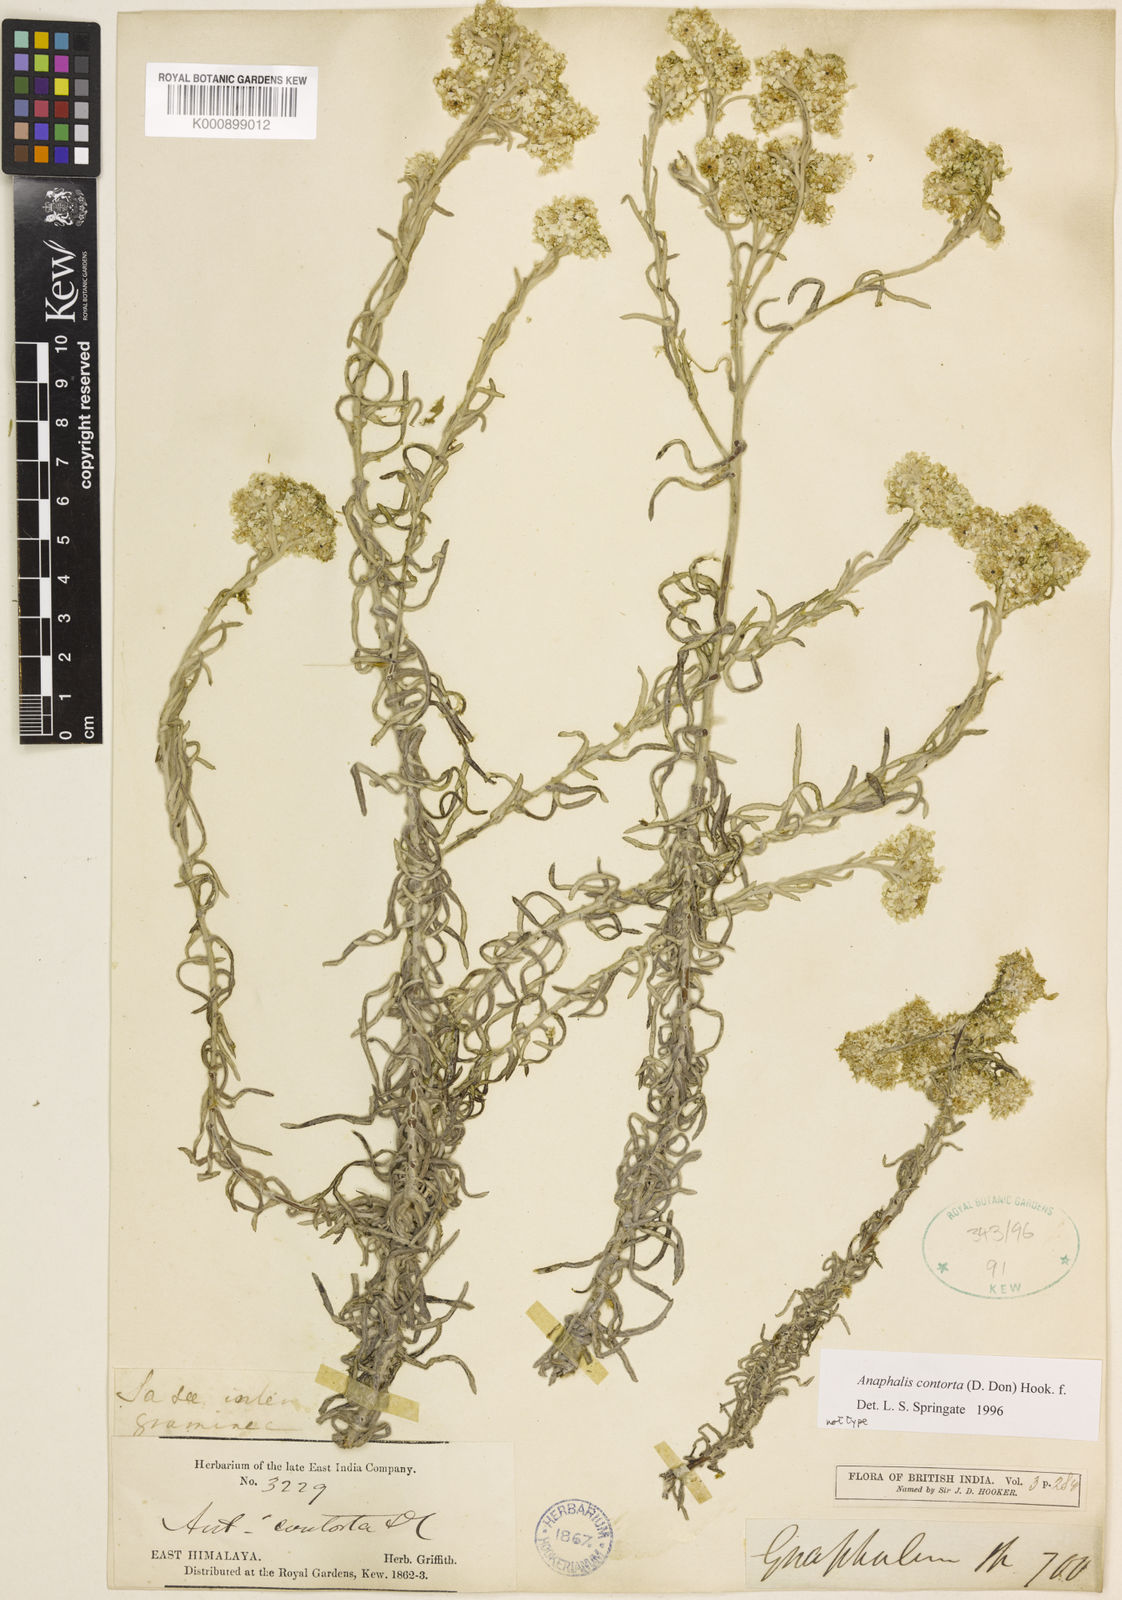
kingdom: Plantae
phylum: Tracheophyta
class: Magnoliopsida
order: Asterales
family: Asteraceae
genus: Anaphalis
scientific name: Anaphalis contorta
